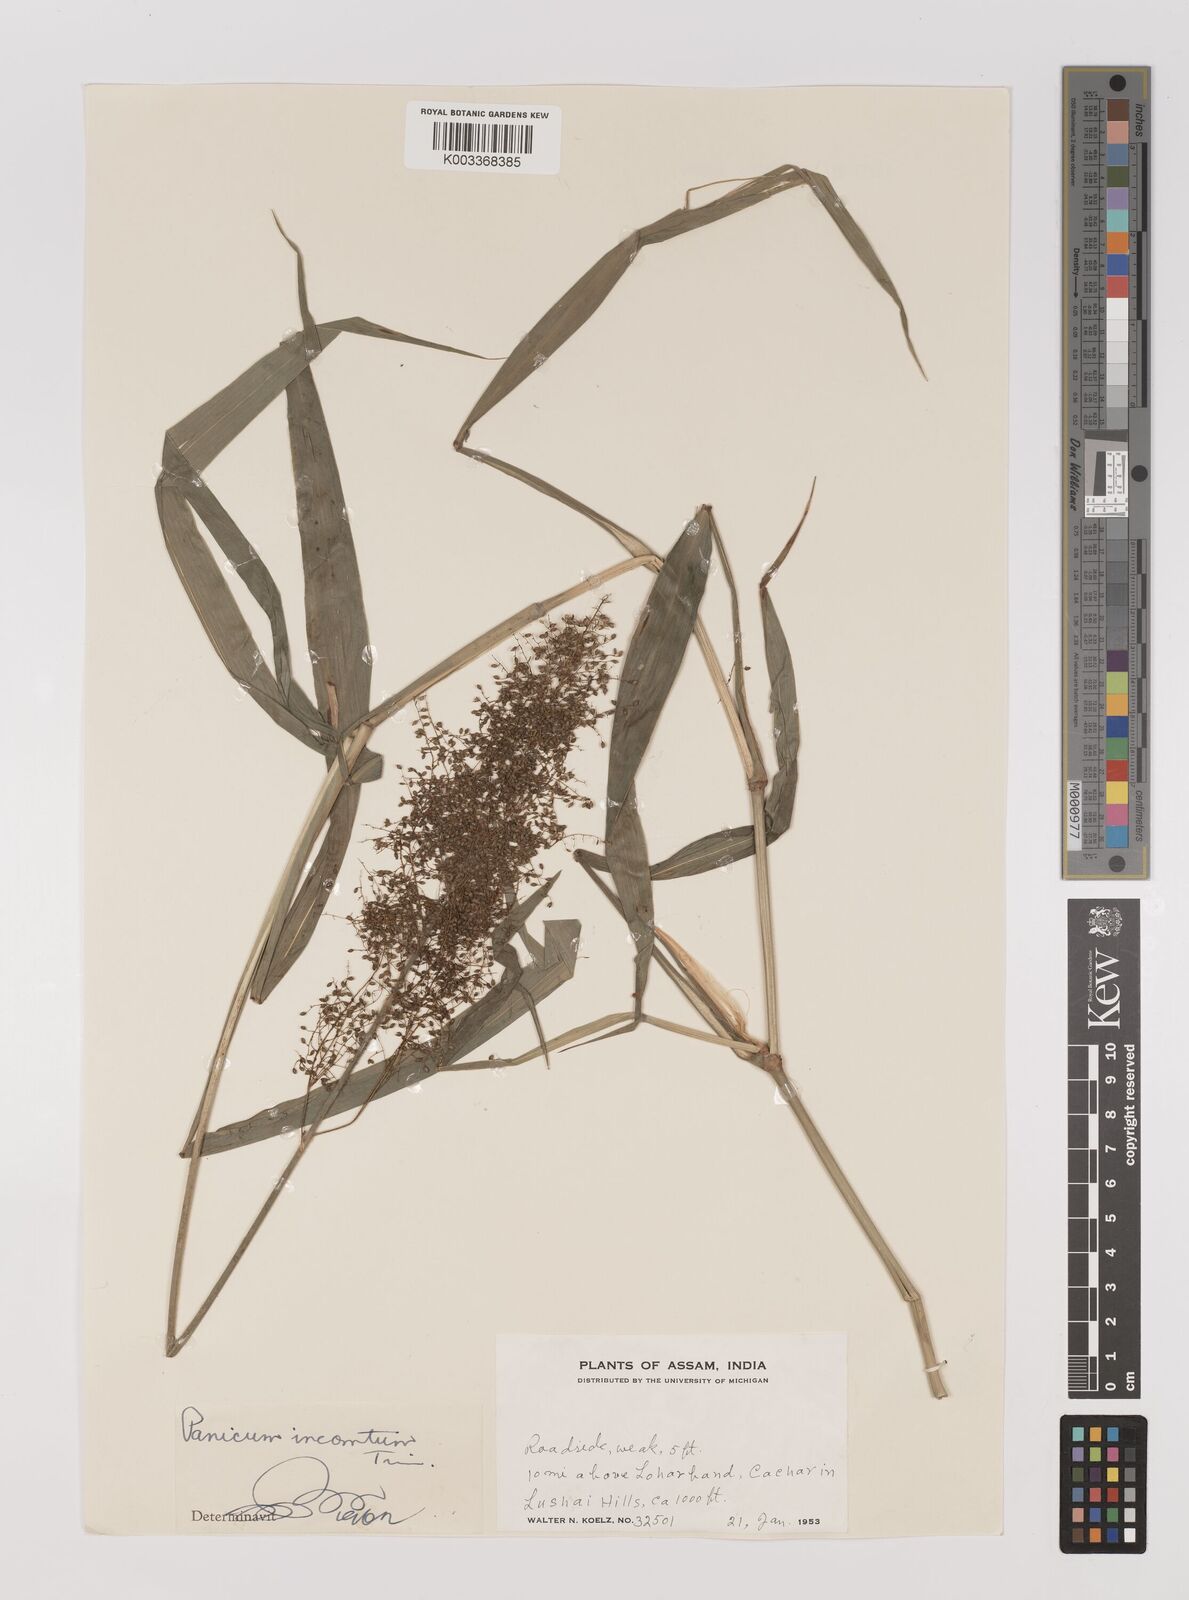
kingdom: Plantae
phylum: Tracheophyta
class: Liliopsida
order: Poales
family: Poaceae
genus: Panicum
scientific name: Panicum incomtum
